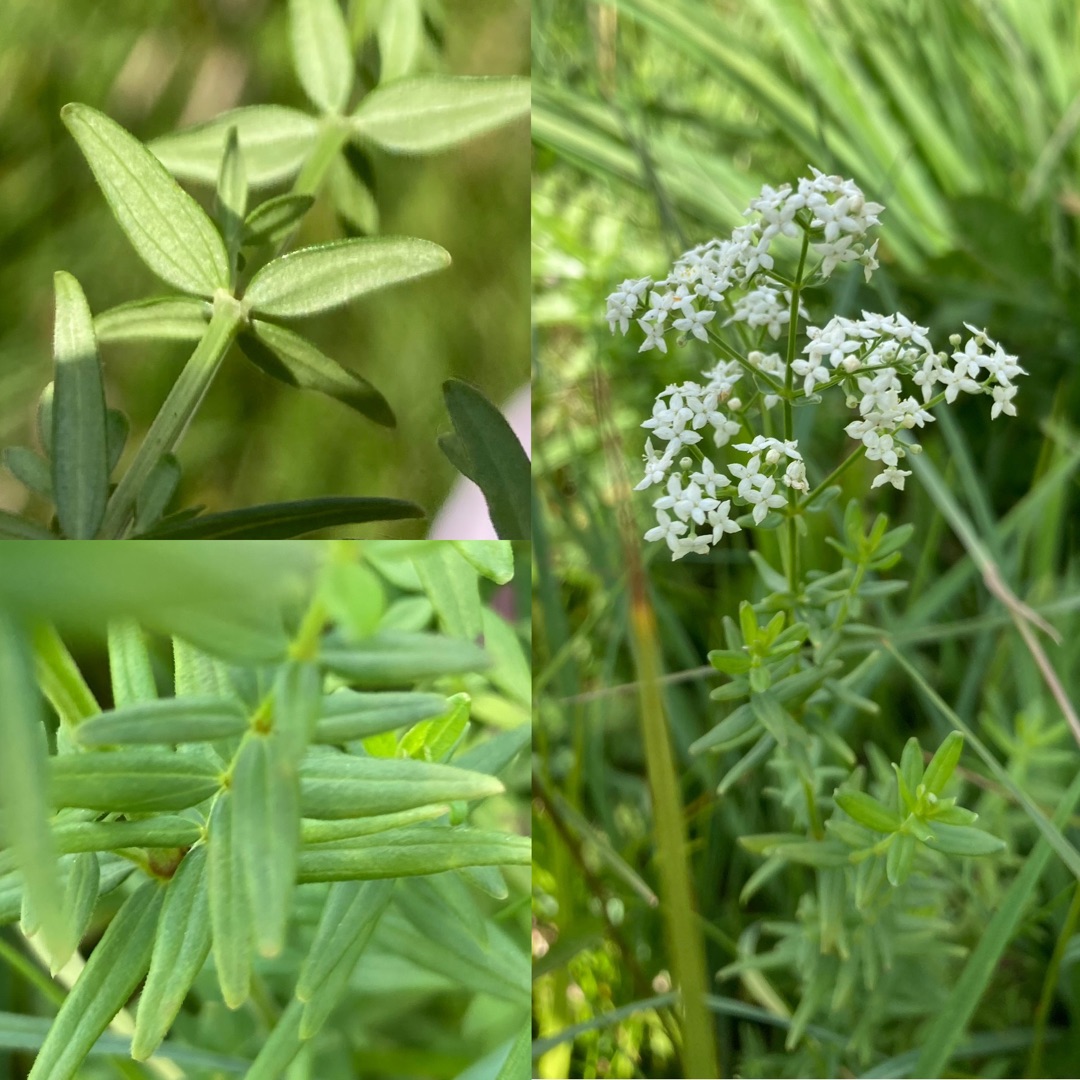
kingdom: Plantae
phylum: Tracheophyta
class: Magnoliopsida
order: Gentianales
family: Rubiaceae
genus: Galium
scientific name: Galium boreale
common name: Trenervet snerre
